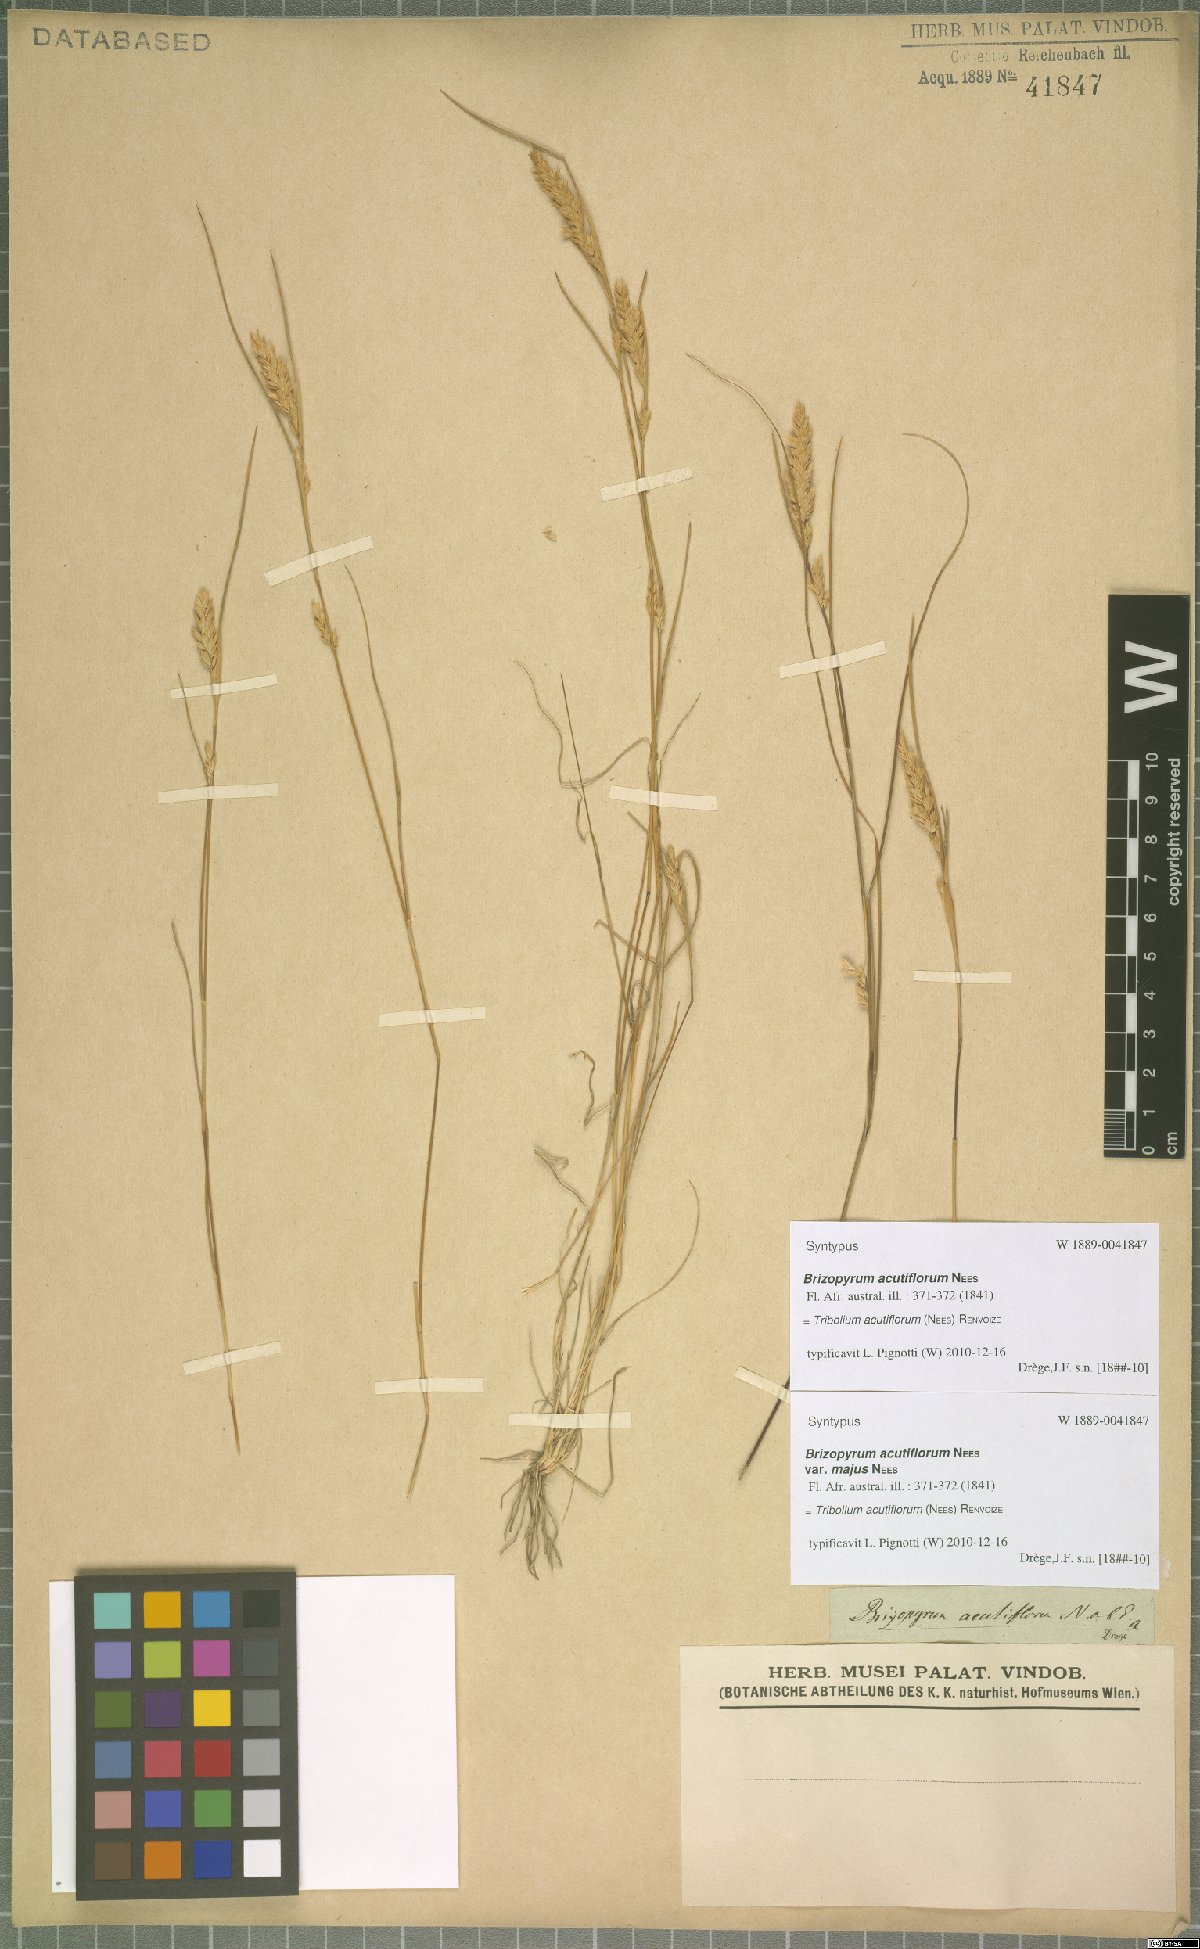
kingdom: Plantae
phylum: Tracheophyta
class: Liliopsida
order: Poales
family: Poaceae
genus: Tribolium
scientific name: Tribolium acutiflorum
